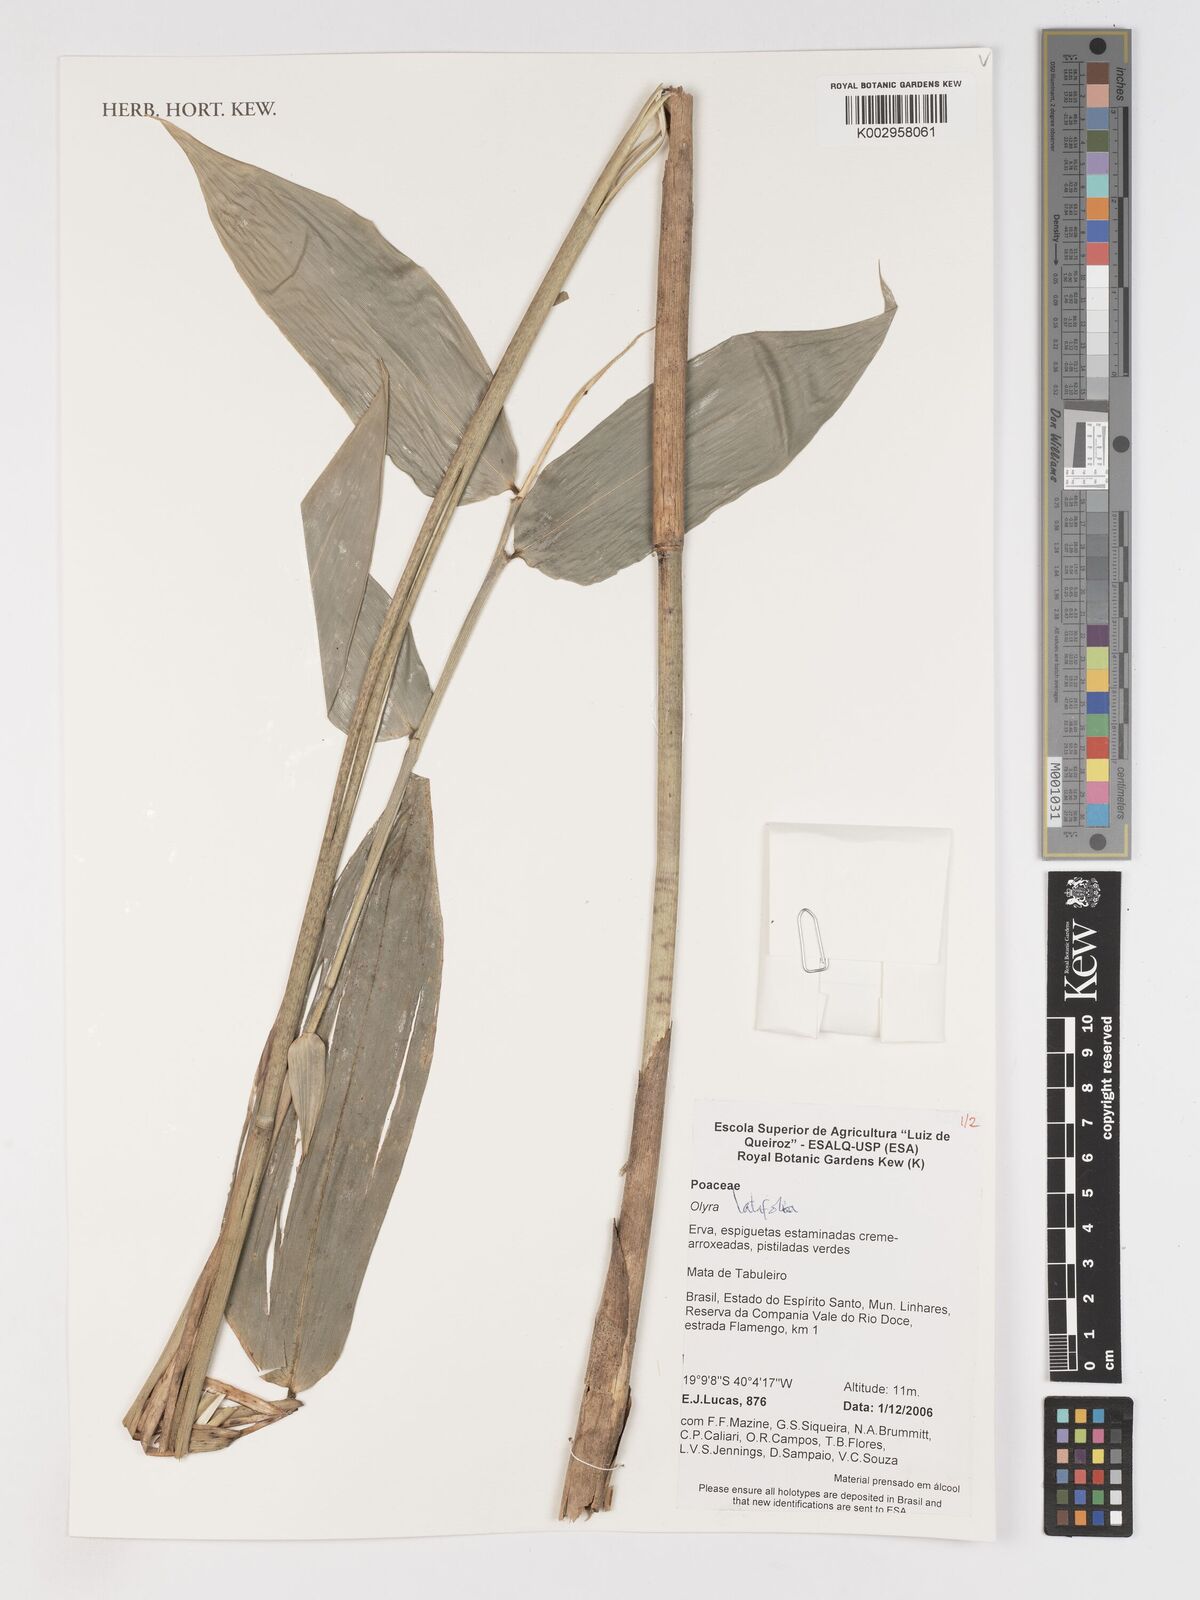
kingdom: Plantae
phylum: Tracheophyta
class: Liliopsida
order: Poales
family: Poaceae
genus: Olyra
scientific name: Olyra latifolia
